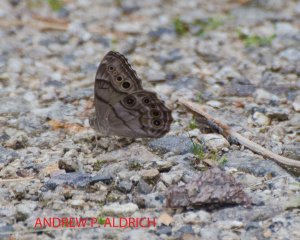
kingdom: Animalia
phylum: Arthropoda
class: Insecta
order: Lepidoptera
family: Nymphalidae
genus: Lethe
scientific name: Lethe anthedon
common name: Northern Pearly-Eye
